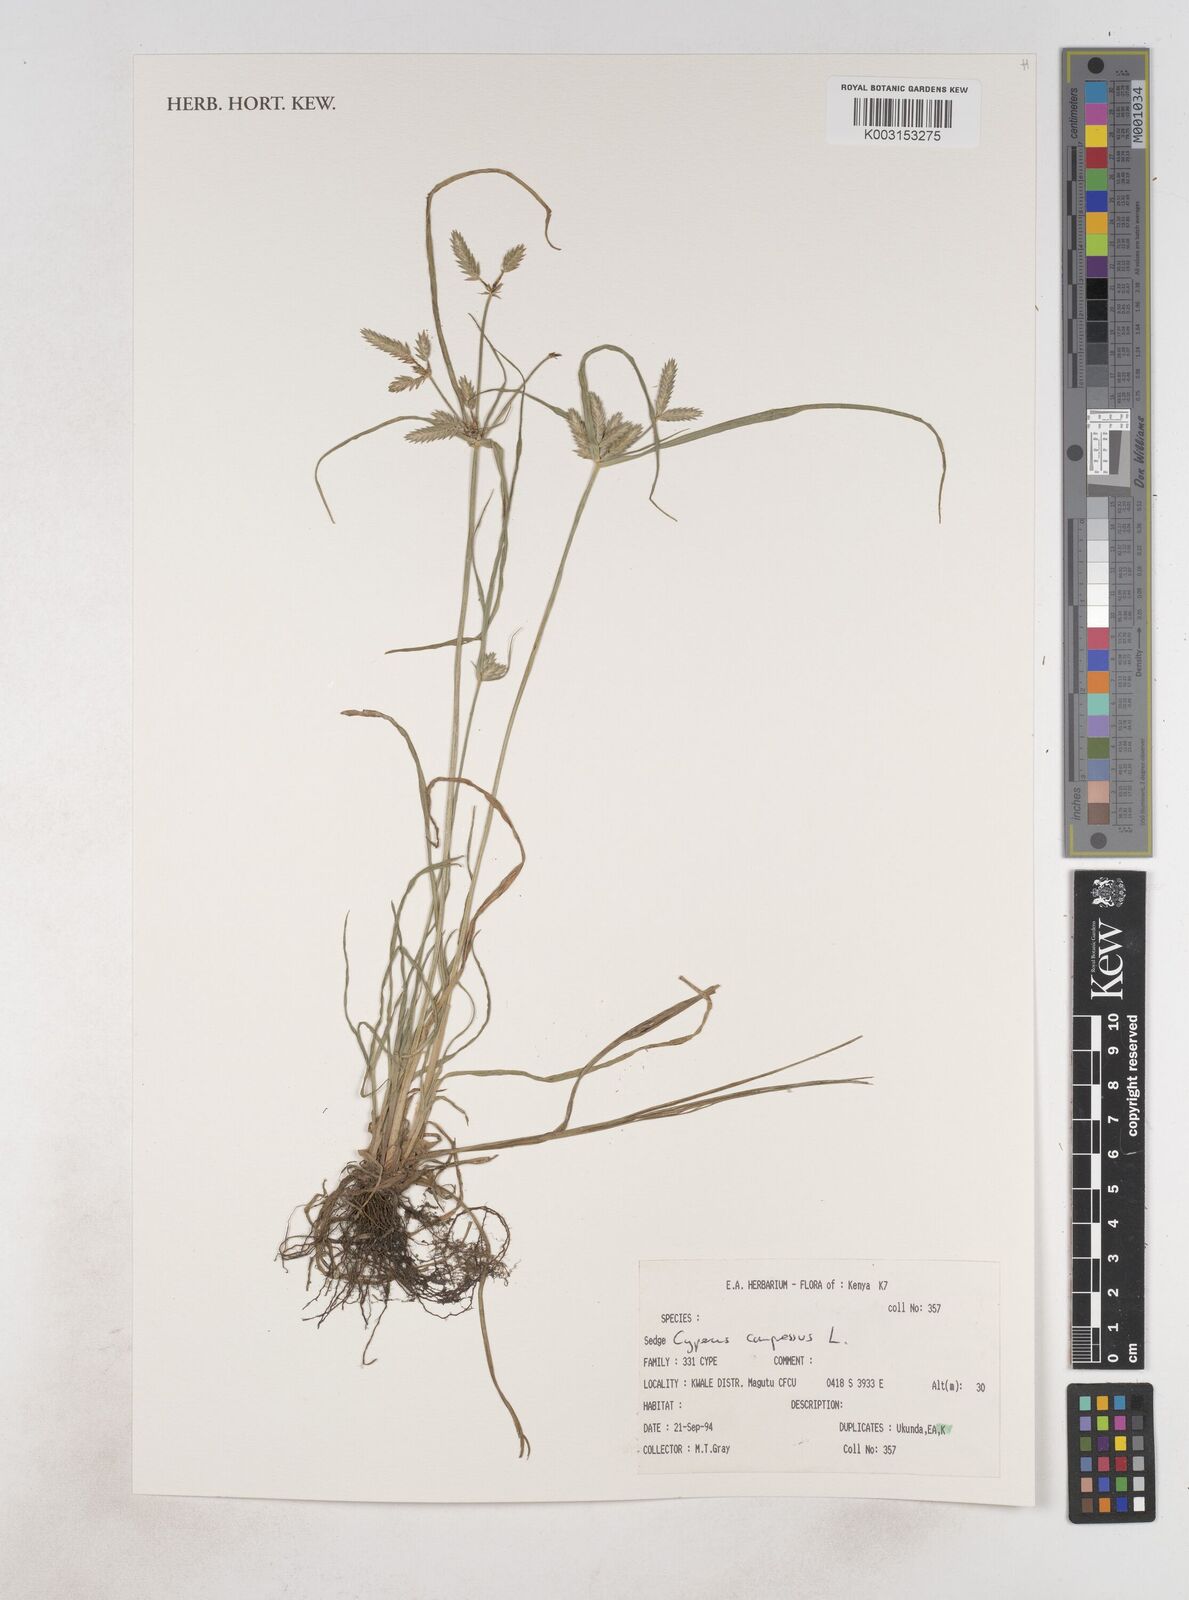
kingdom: Plantae
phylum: Tracheophyta
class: Liliopsida
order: Poales
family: Cyperaceae
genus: Cyperus
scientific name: Cyperus compressus
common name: Poorland flatsedge
